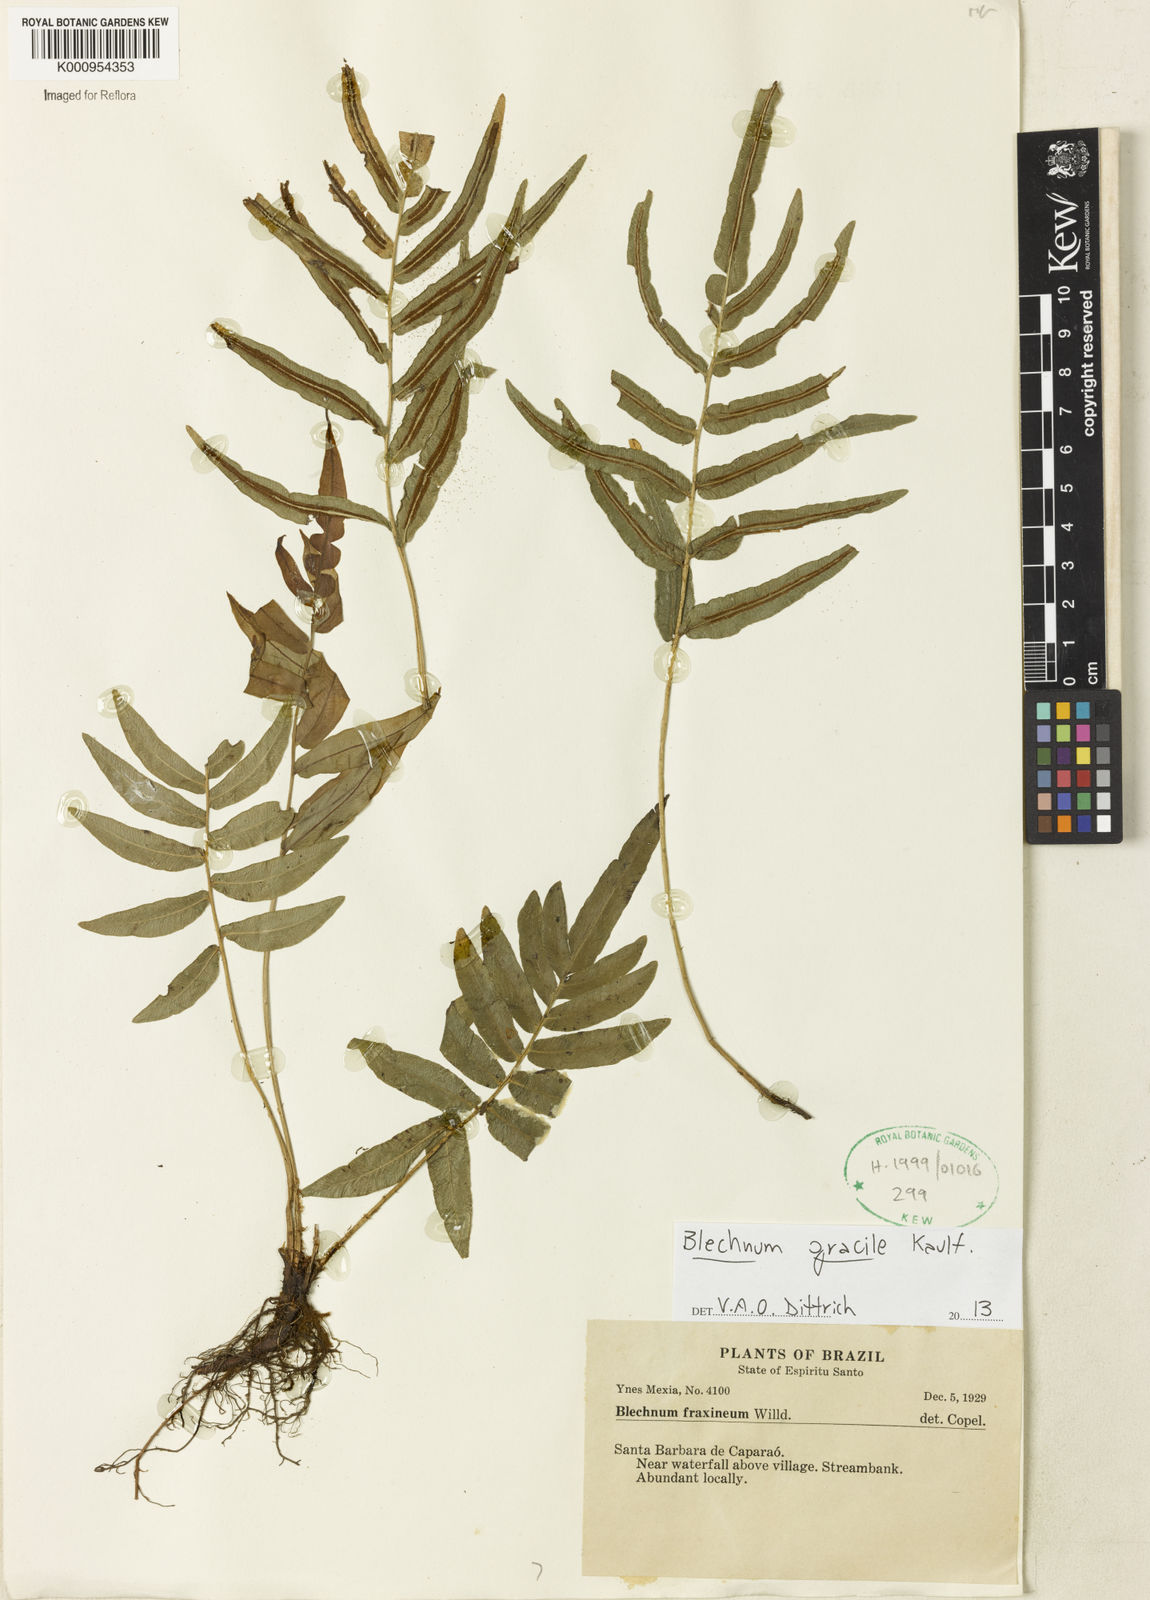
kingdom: Plantae
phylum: Tracheophyta
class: Polypodiopsida
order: Polypodiales
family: Blechnaceae
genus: Blechnum
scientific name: Blechnum gracile
